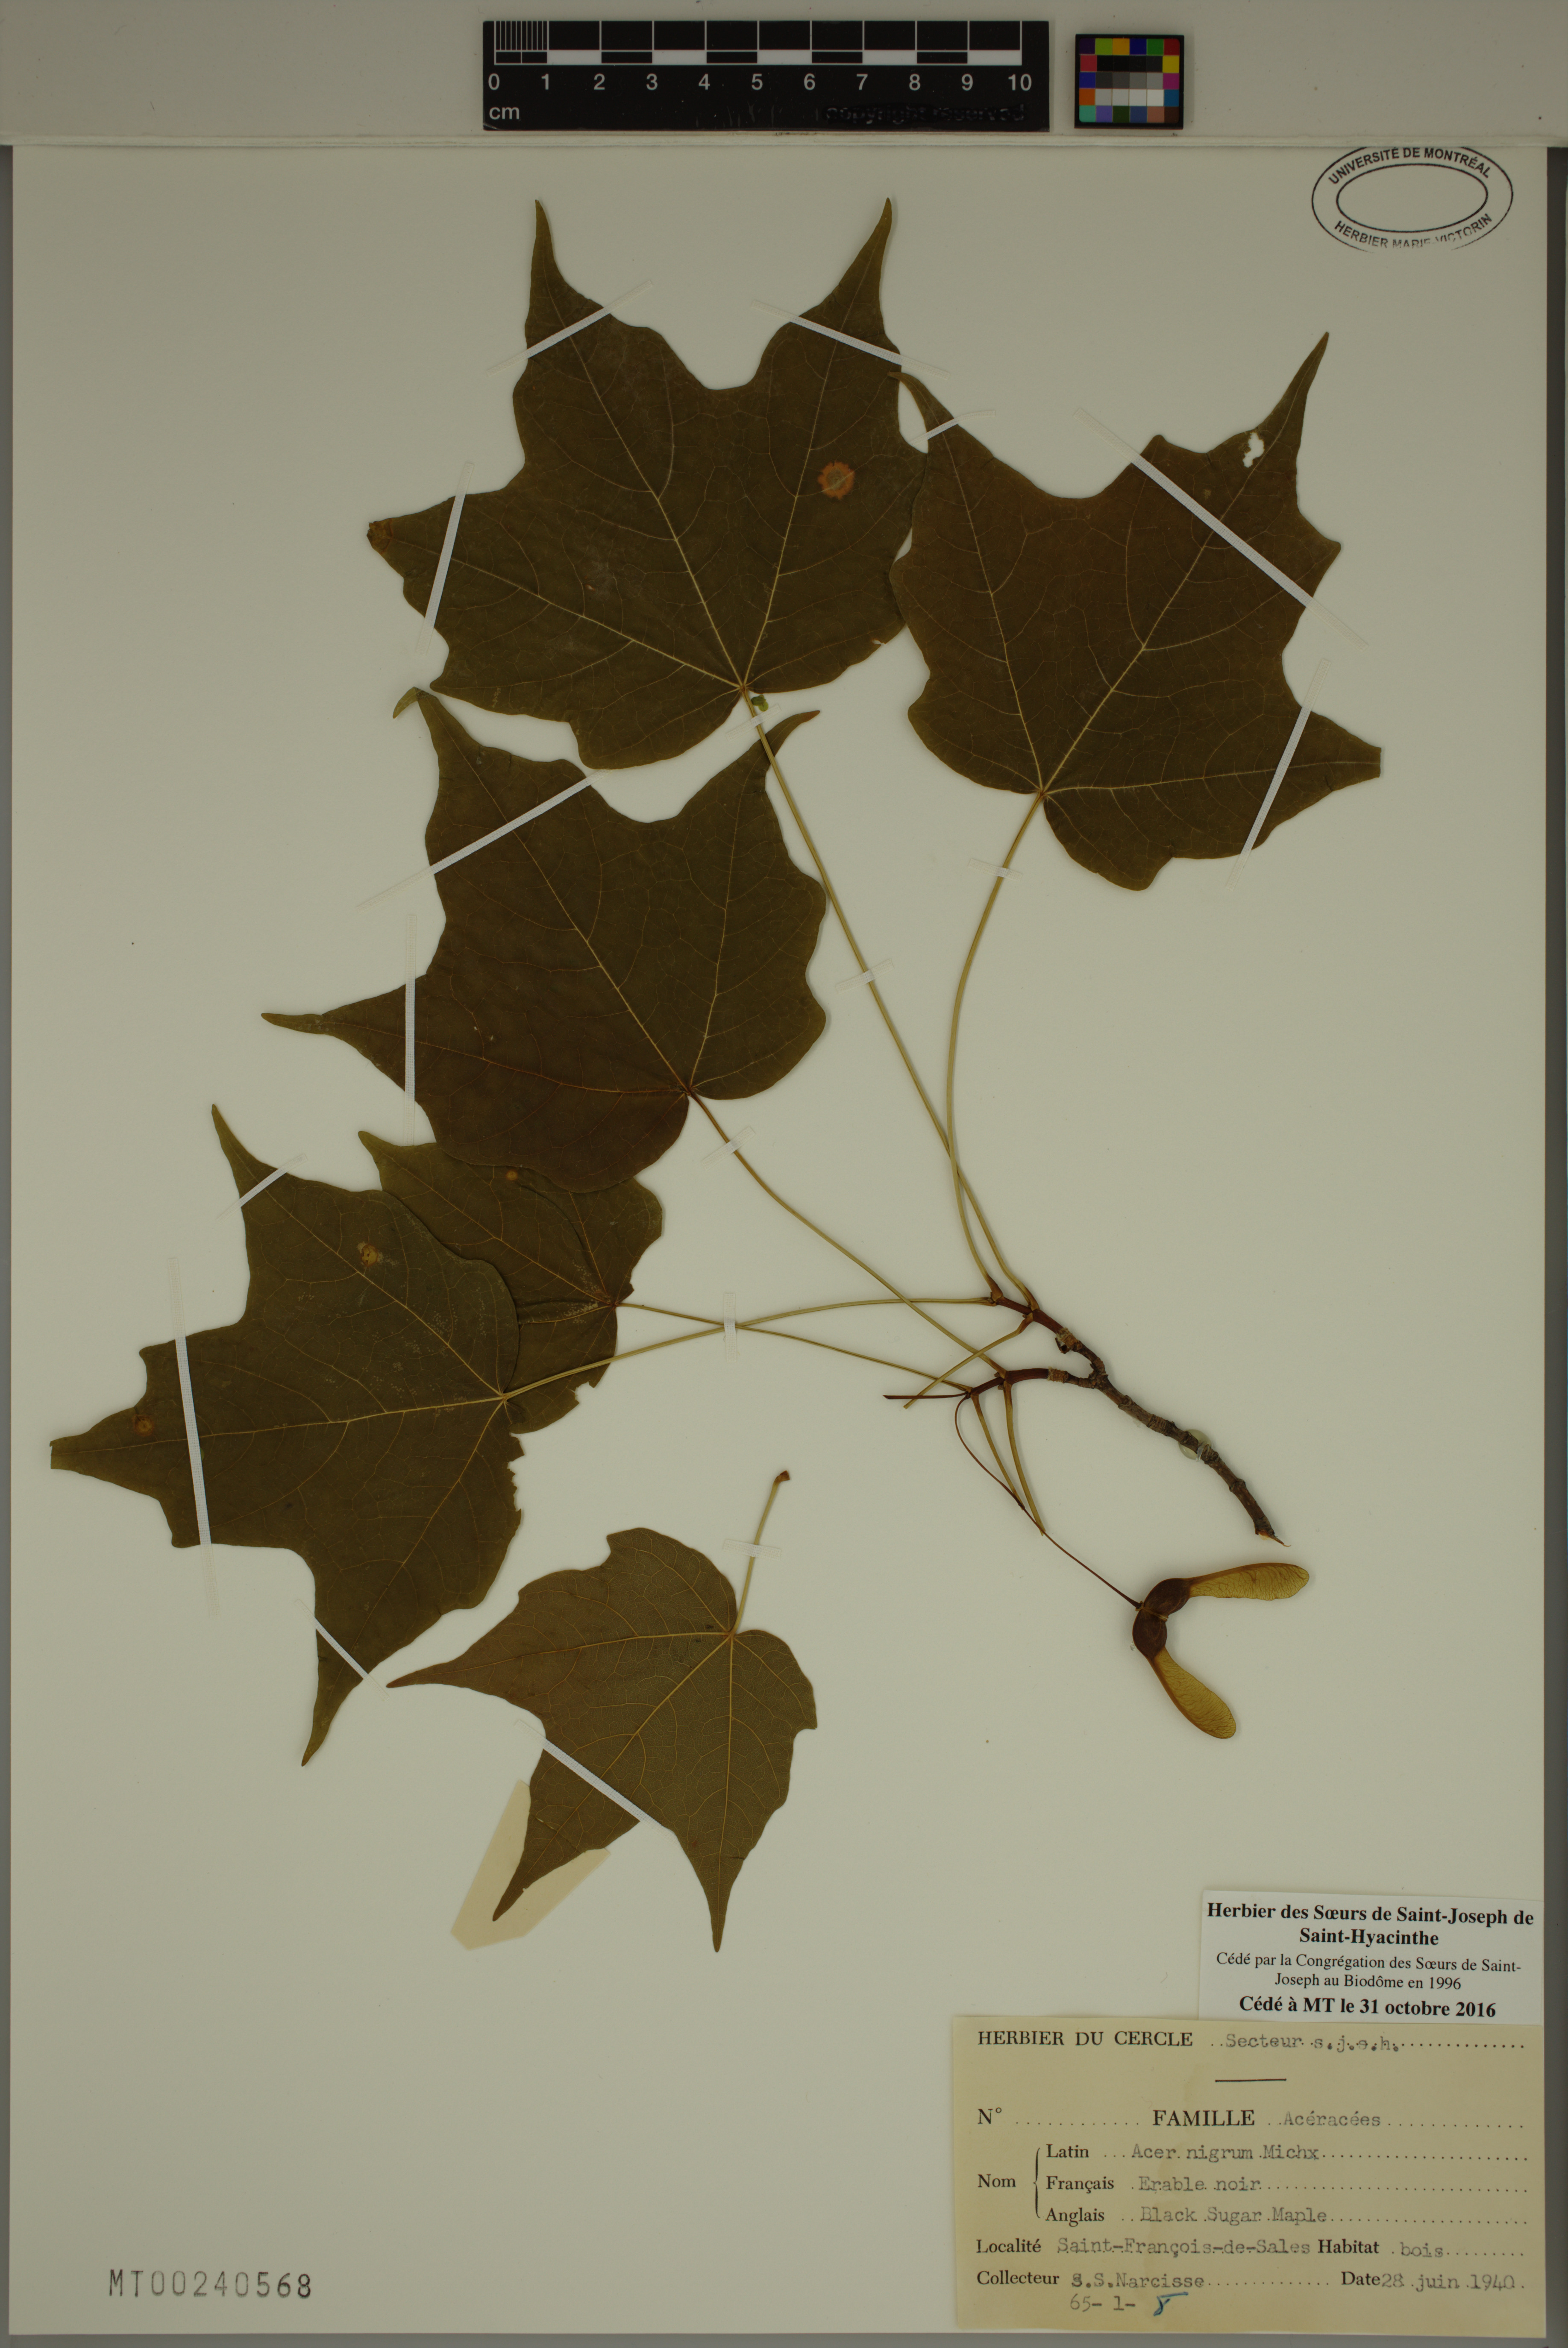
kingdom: Plantae
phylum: Tracheophyta
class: Magnoliopsida
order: Sapindales
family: Sapindaceae
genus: Acer
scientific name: Acer nigrum
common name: Black maple
